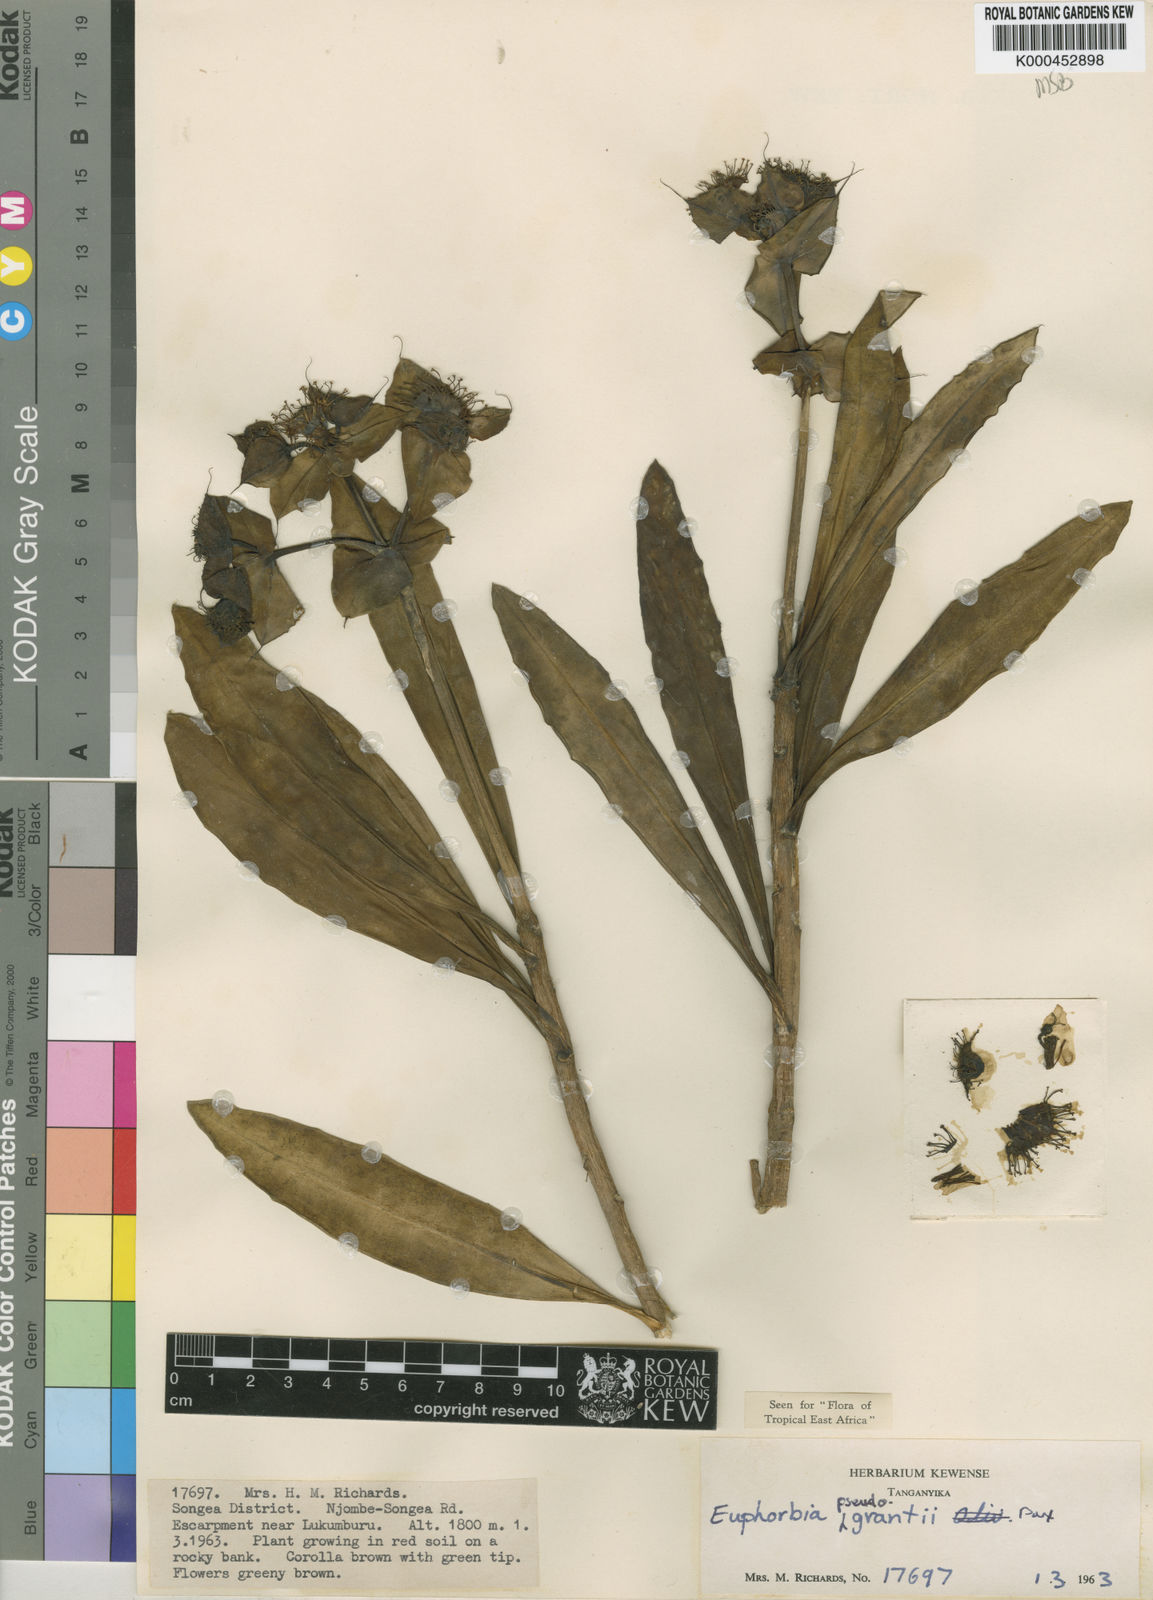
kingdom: Plantae
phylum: Tracheophyta
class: Magnoliopsida
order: Malpighiales
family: Euphorbiaceae
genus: Euphorbia
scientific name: Euphorbia pseudograntii
